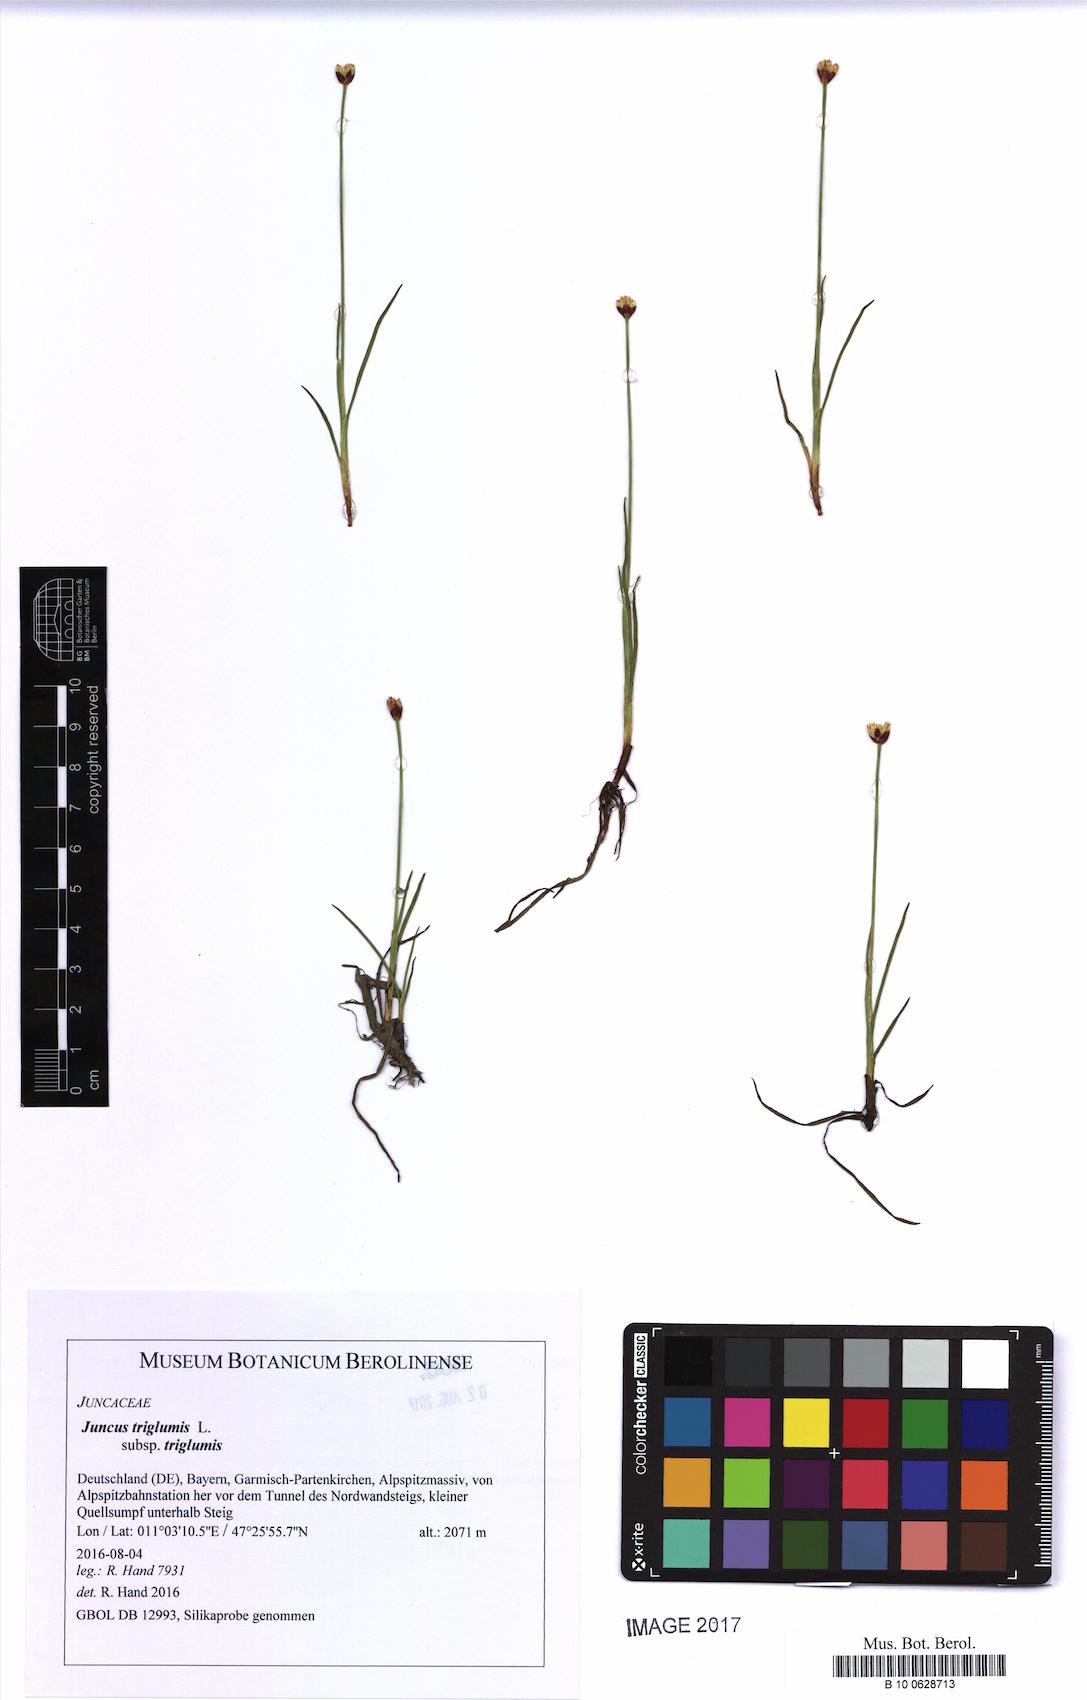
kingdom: Plantae
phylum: Tracheophyta
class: Liliopsida
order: Poales
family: Juncaceae
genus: Juncus
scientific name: Juncus triglumis
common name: Three-flowered rush
